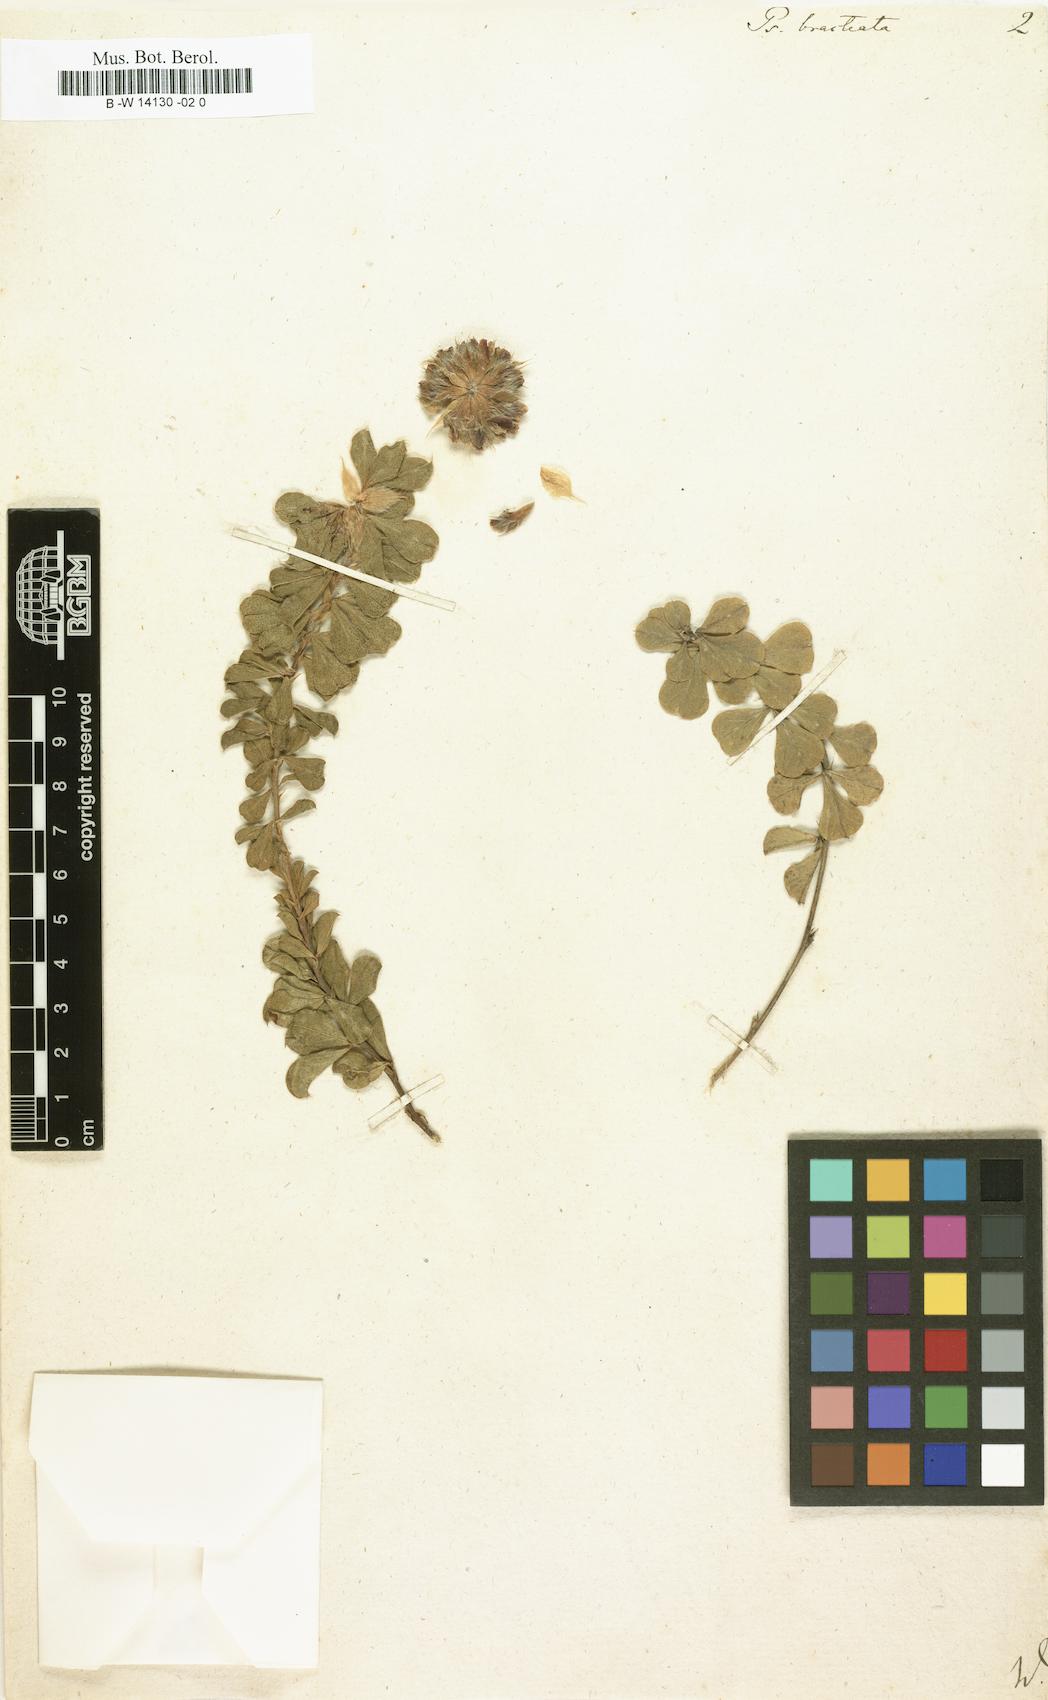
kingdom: Plantae
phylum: Tracheophyta
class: Magnoliopsida
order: Fabales
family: Fabaceae
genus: Psoralea
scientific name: Psoralea fruticans
